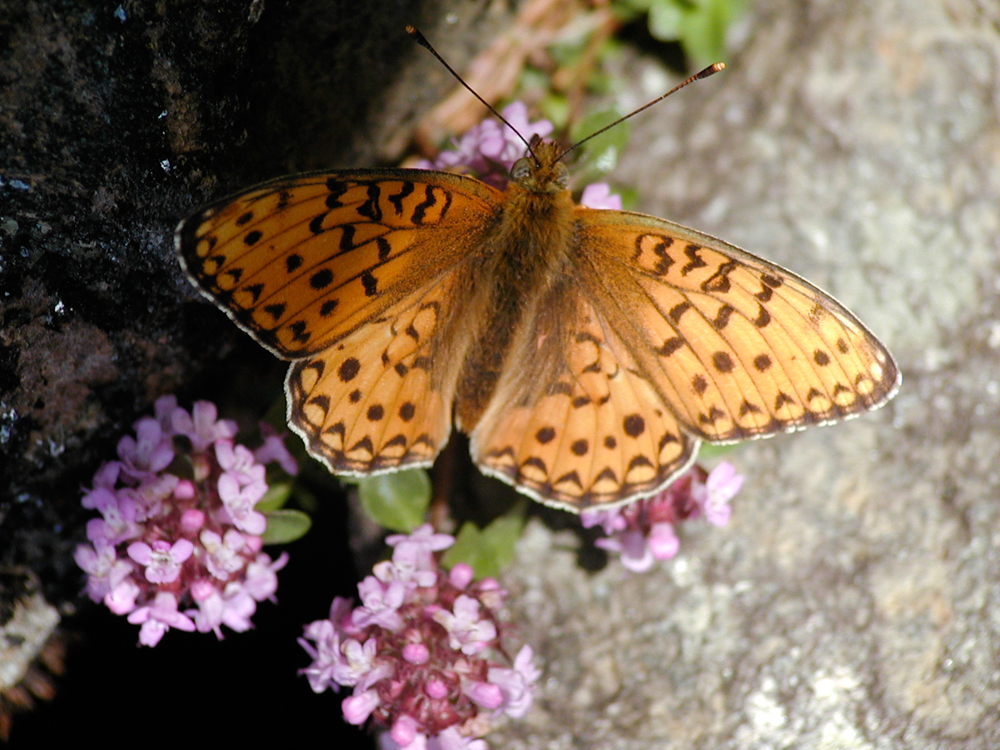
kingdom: Animalia
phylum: Arthropoda
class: Insecta
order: Lepidoptera
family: Nymphalidae
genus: Fabriciana
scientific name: Fabriciana adippe
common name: High brown fritillary
